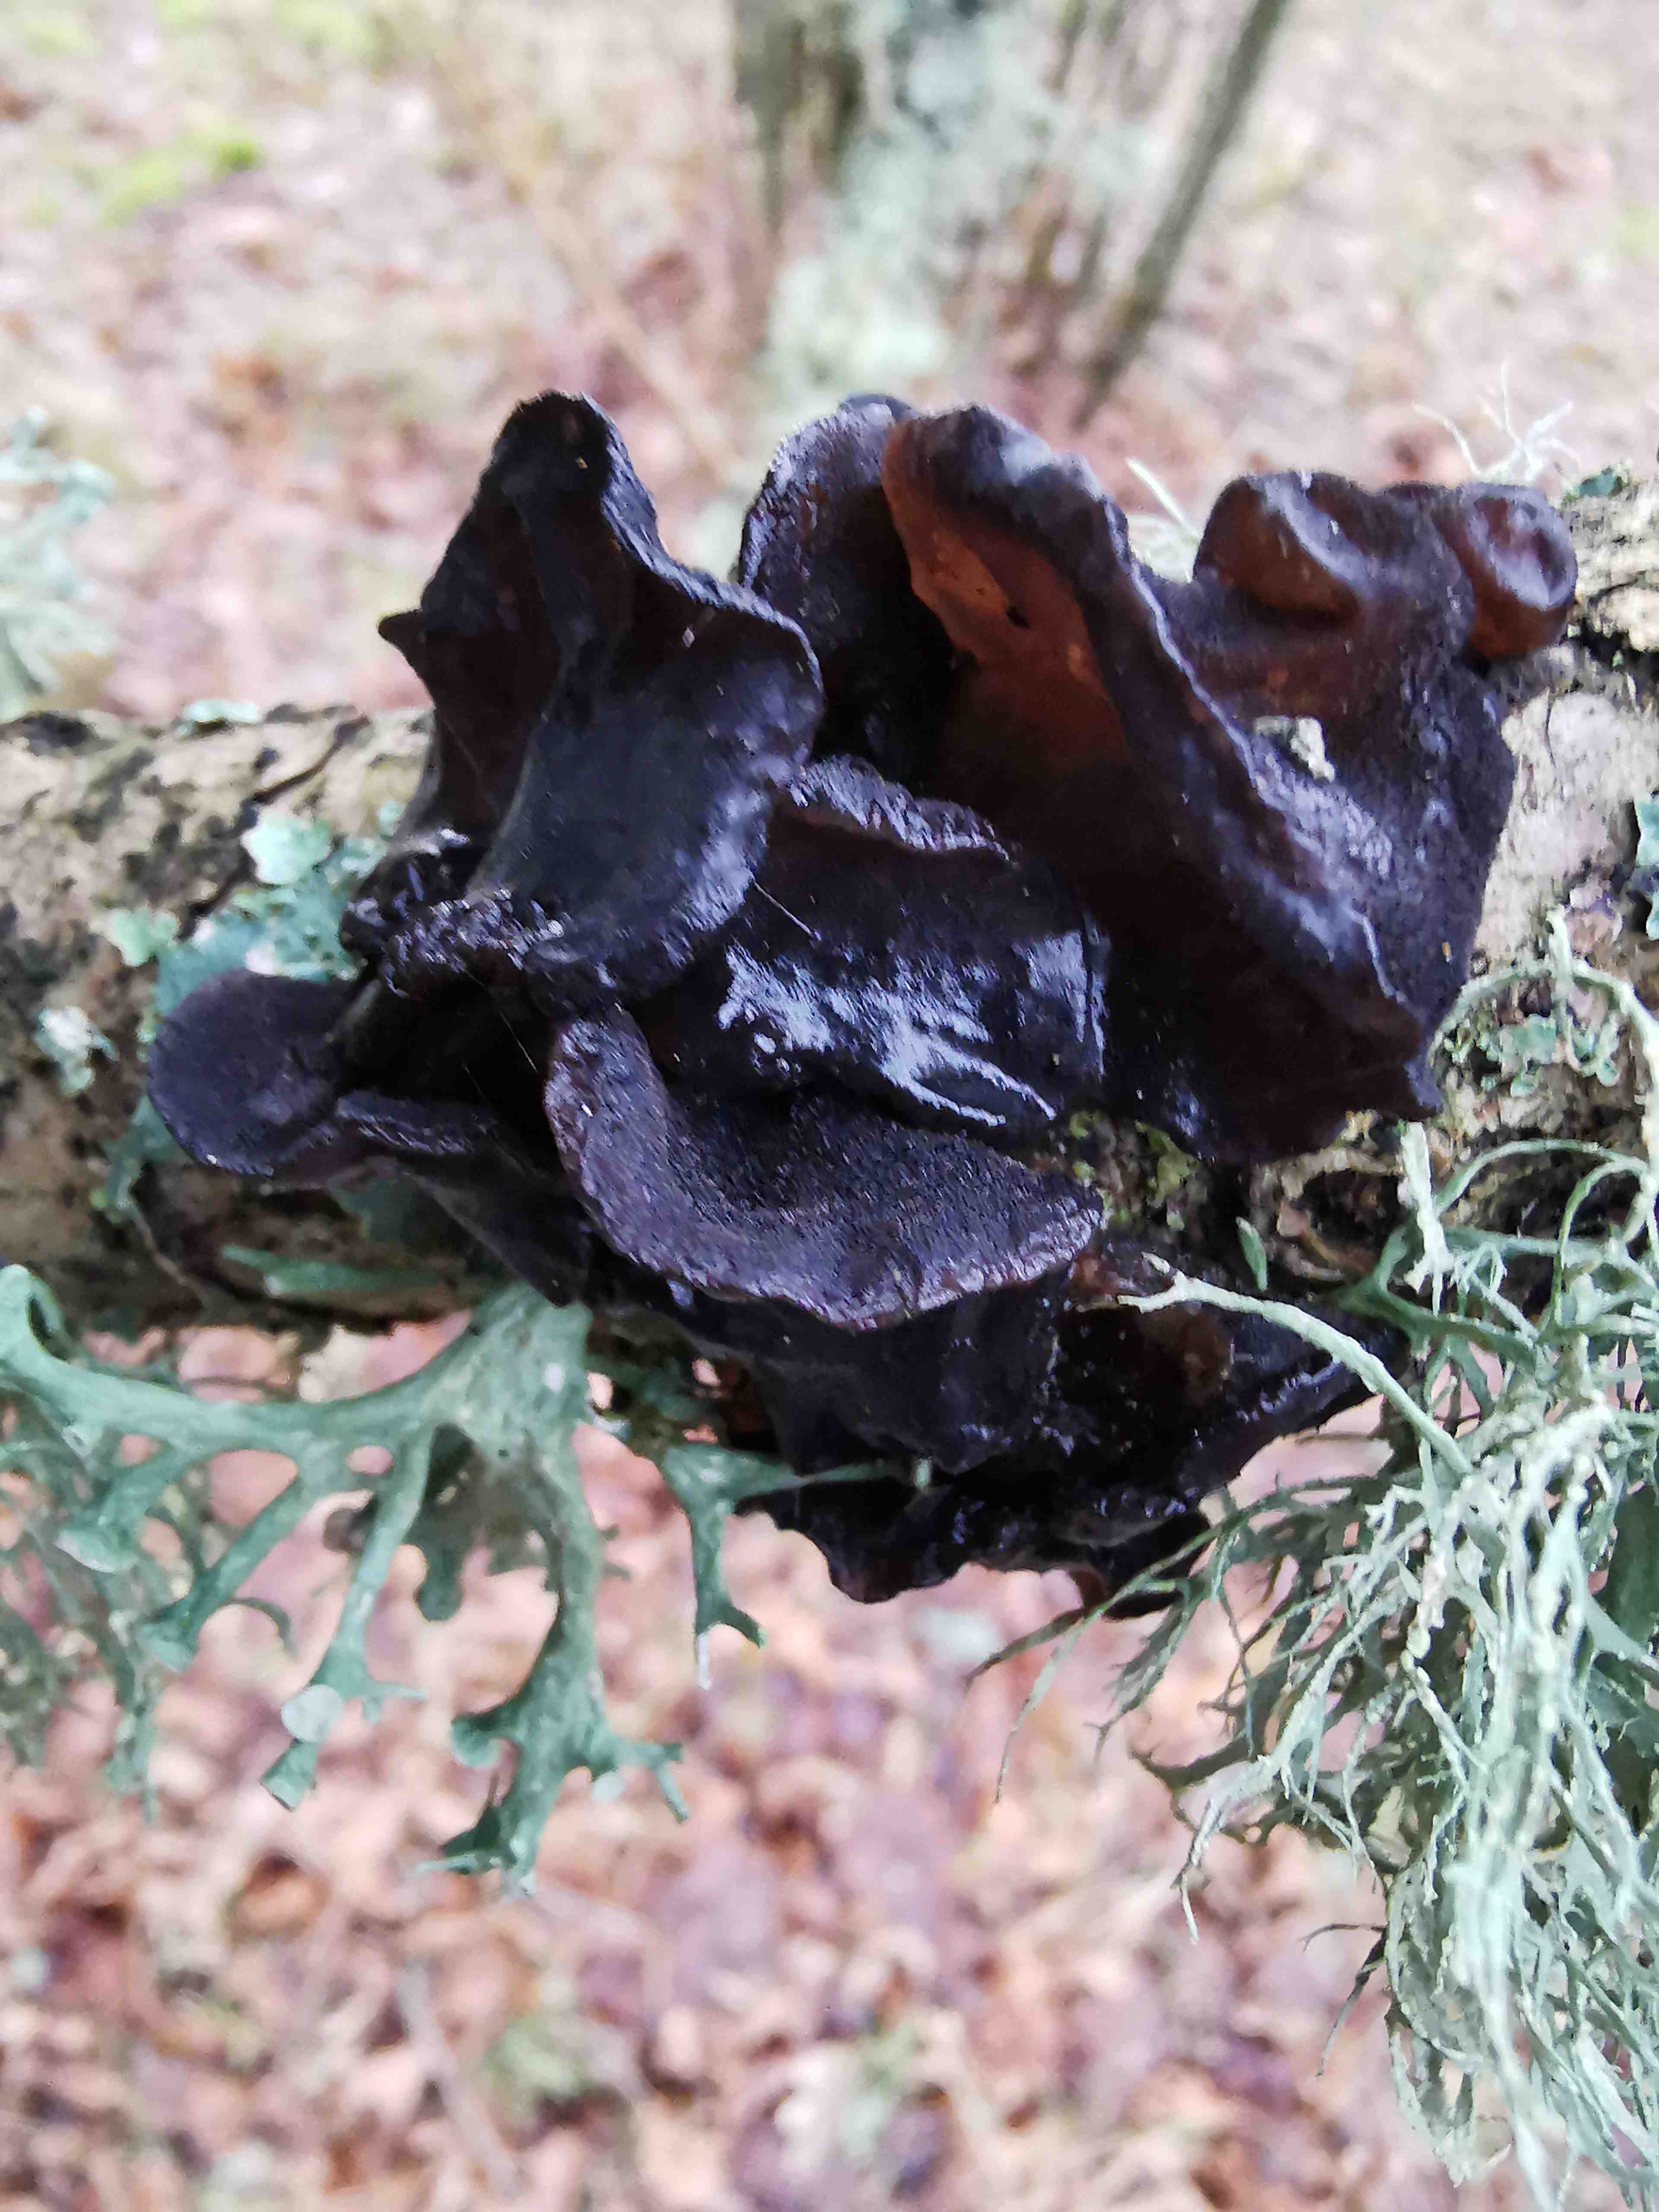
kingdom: Fungi
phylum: Basidiomycota
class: Agaricomycetes
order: Auriculariales
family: Auriculariaceae
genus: Exidia
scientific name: Exidia glandulosa
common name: ege-bævretop
